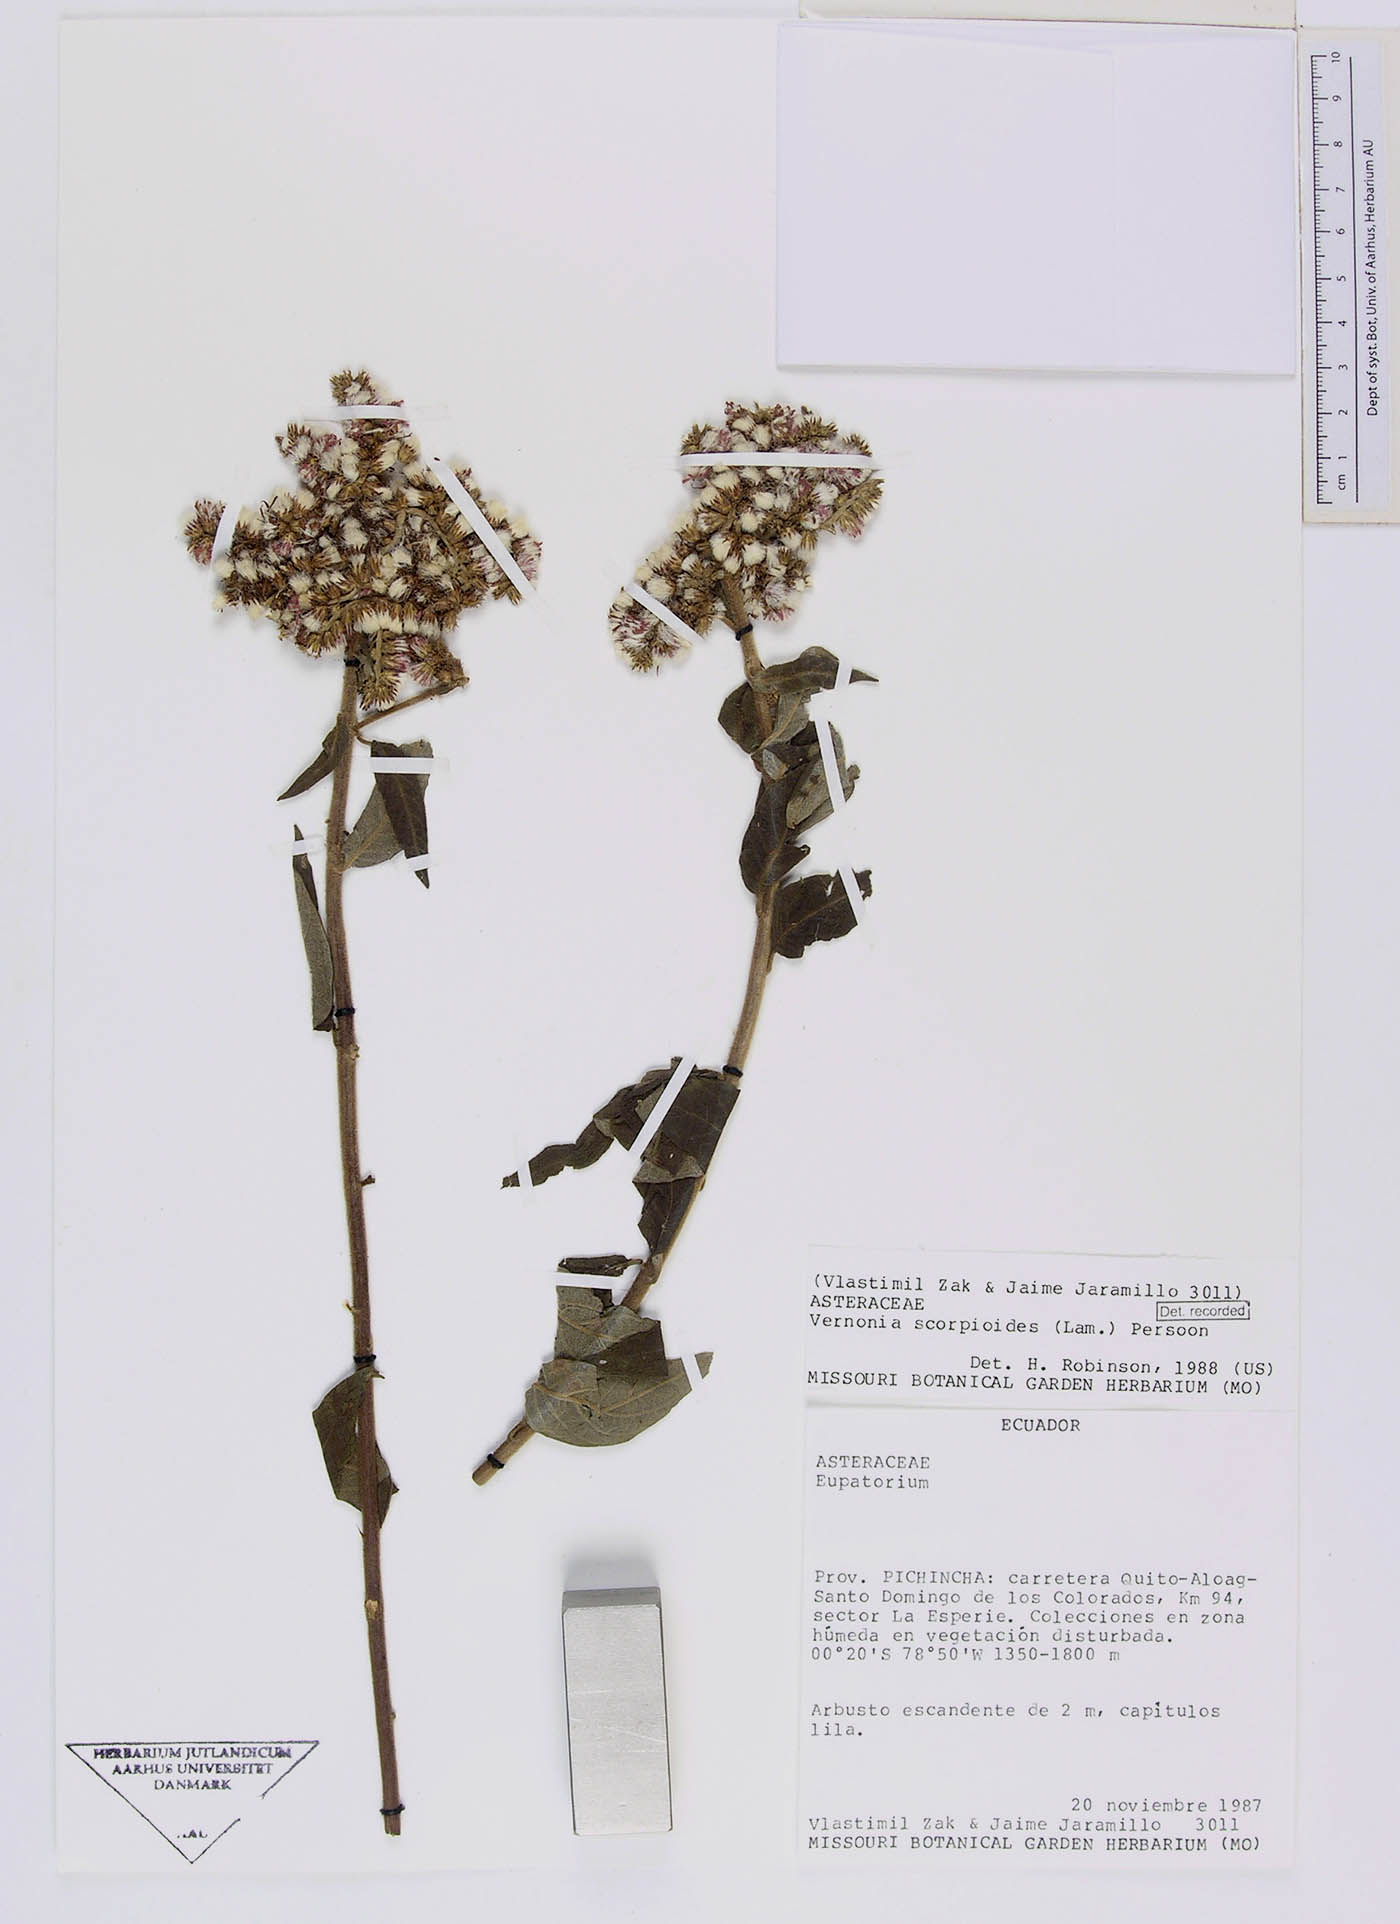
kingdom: Plantae
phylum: Tracheophyta
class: Magnoliopsida
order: Asterales
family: Asteraceae
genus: Cyrtocymura
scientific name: Cyrtocymura scorpioides
